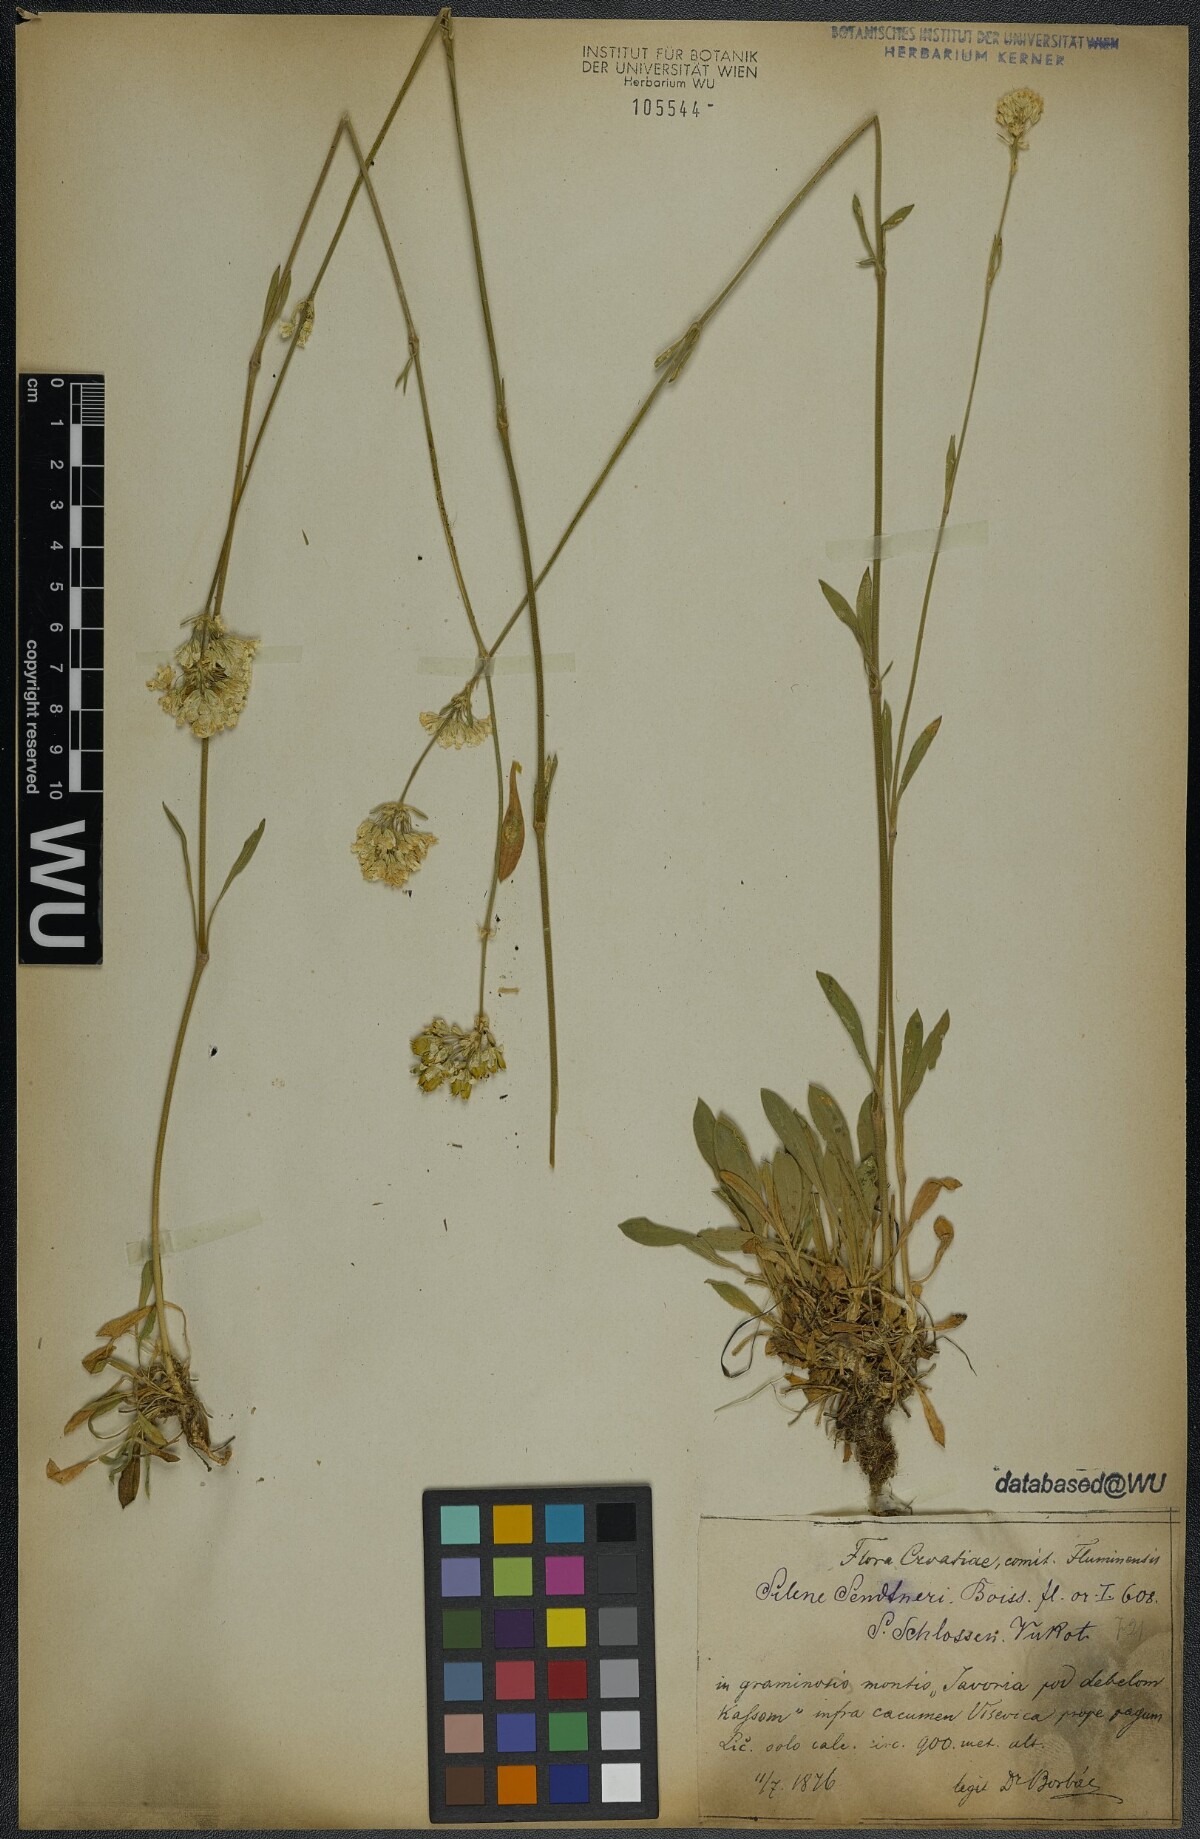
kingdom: Plantae
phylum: Tracheophyta
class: Magnoliopsida
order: Caryophyllales
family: Caryophyllaceae
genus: Silene
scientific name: Silene sendtneri
